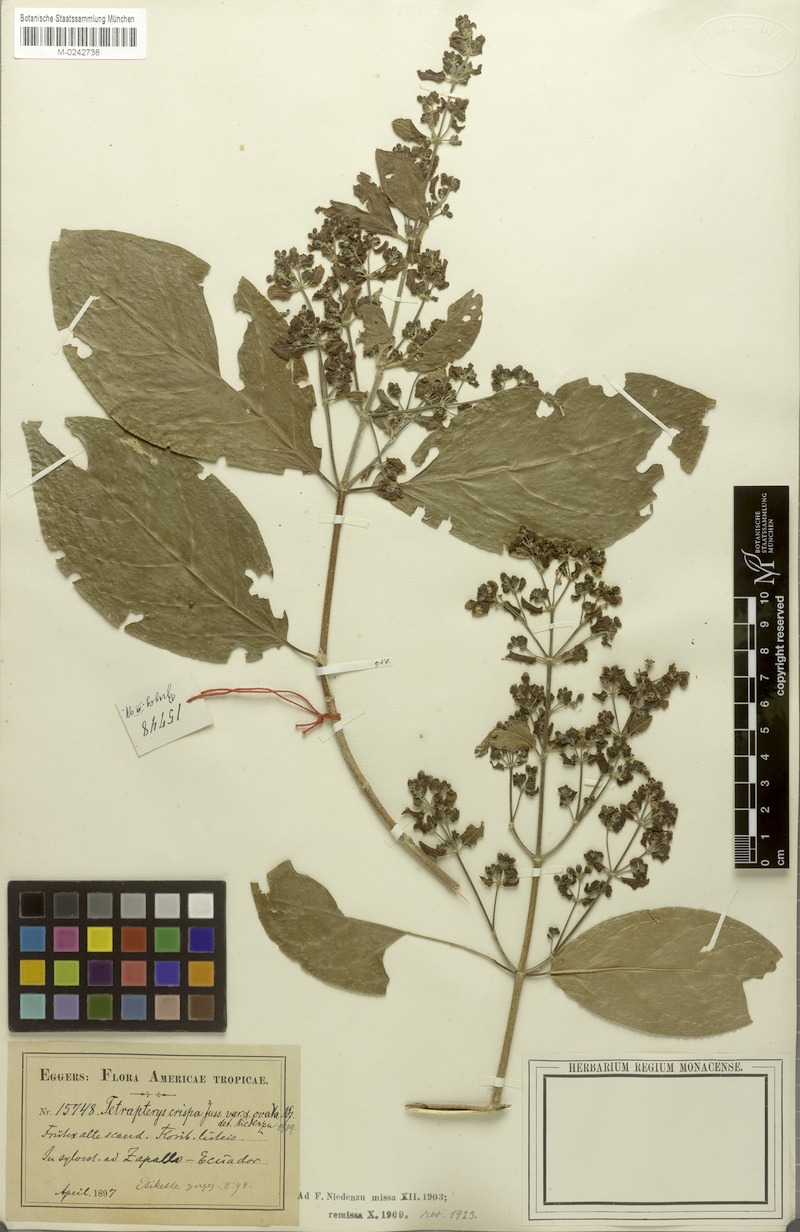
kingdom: Plantae
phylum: Tracheophyta
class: Magnoliopsida
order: Malpighiales
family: Malpighiaceae
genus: Tetrapterys
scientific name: Tetrapterys crispa
